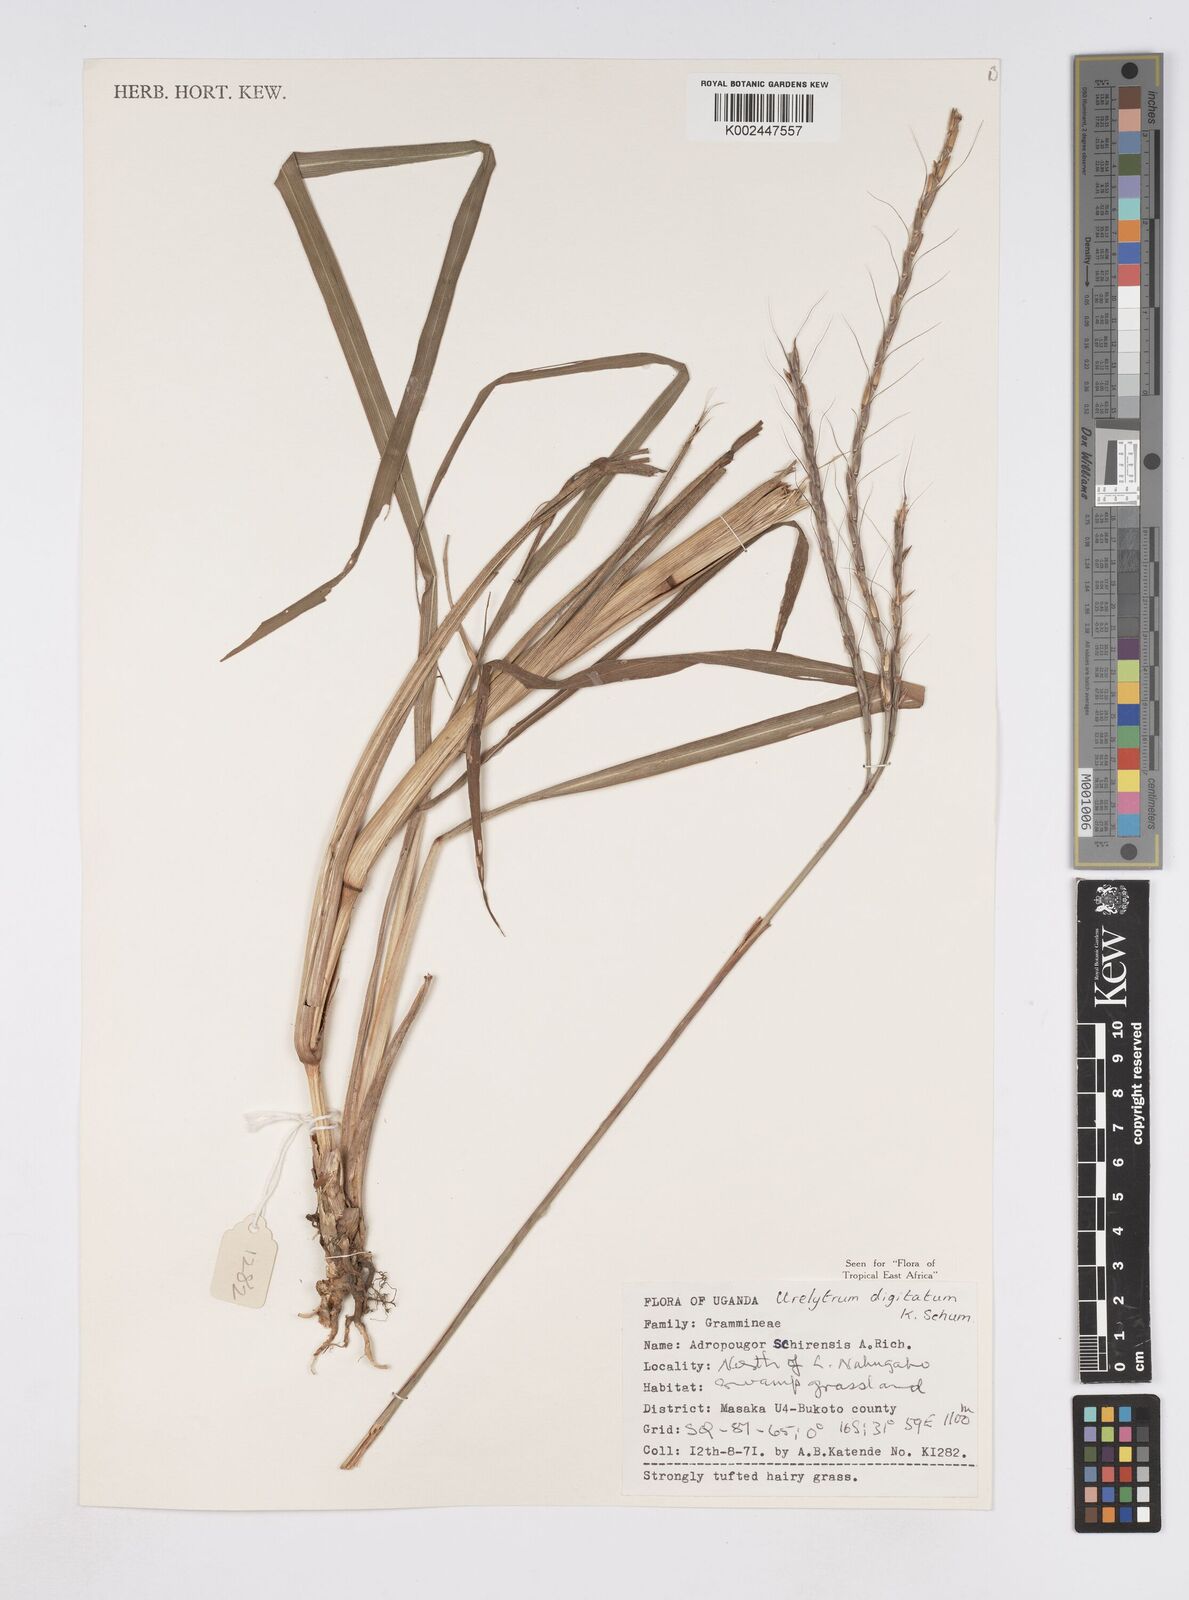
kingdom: Plantae
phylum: Tracheophyta
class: Liliopsida
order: Poales
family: Poaceae
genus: Urelytrum
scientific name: Urelytrum digitatum
